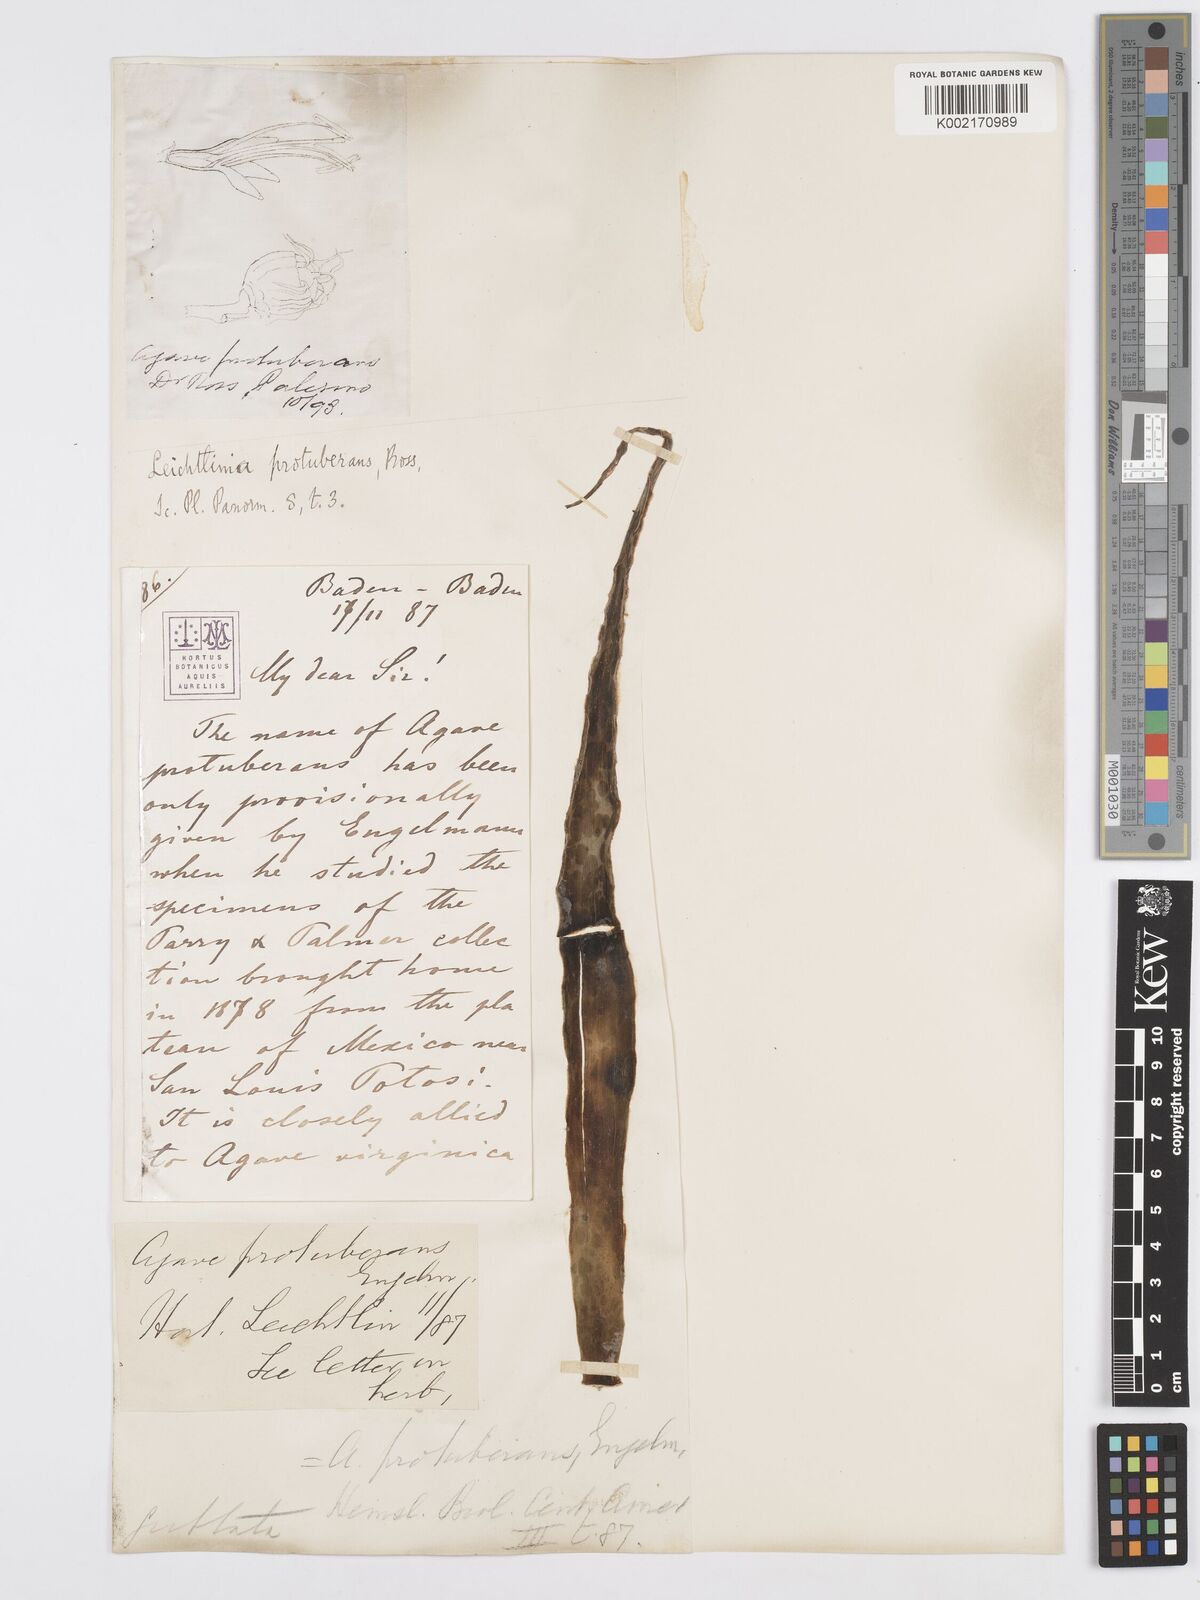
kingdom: Plantae
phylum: Tracheophyta
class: Liliopsida
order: Asparagales
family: Asparagaceae
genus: Agave
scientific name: Agave guttata
